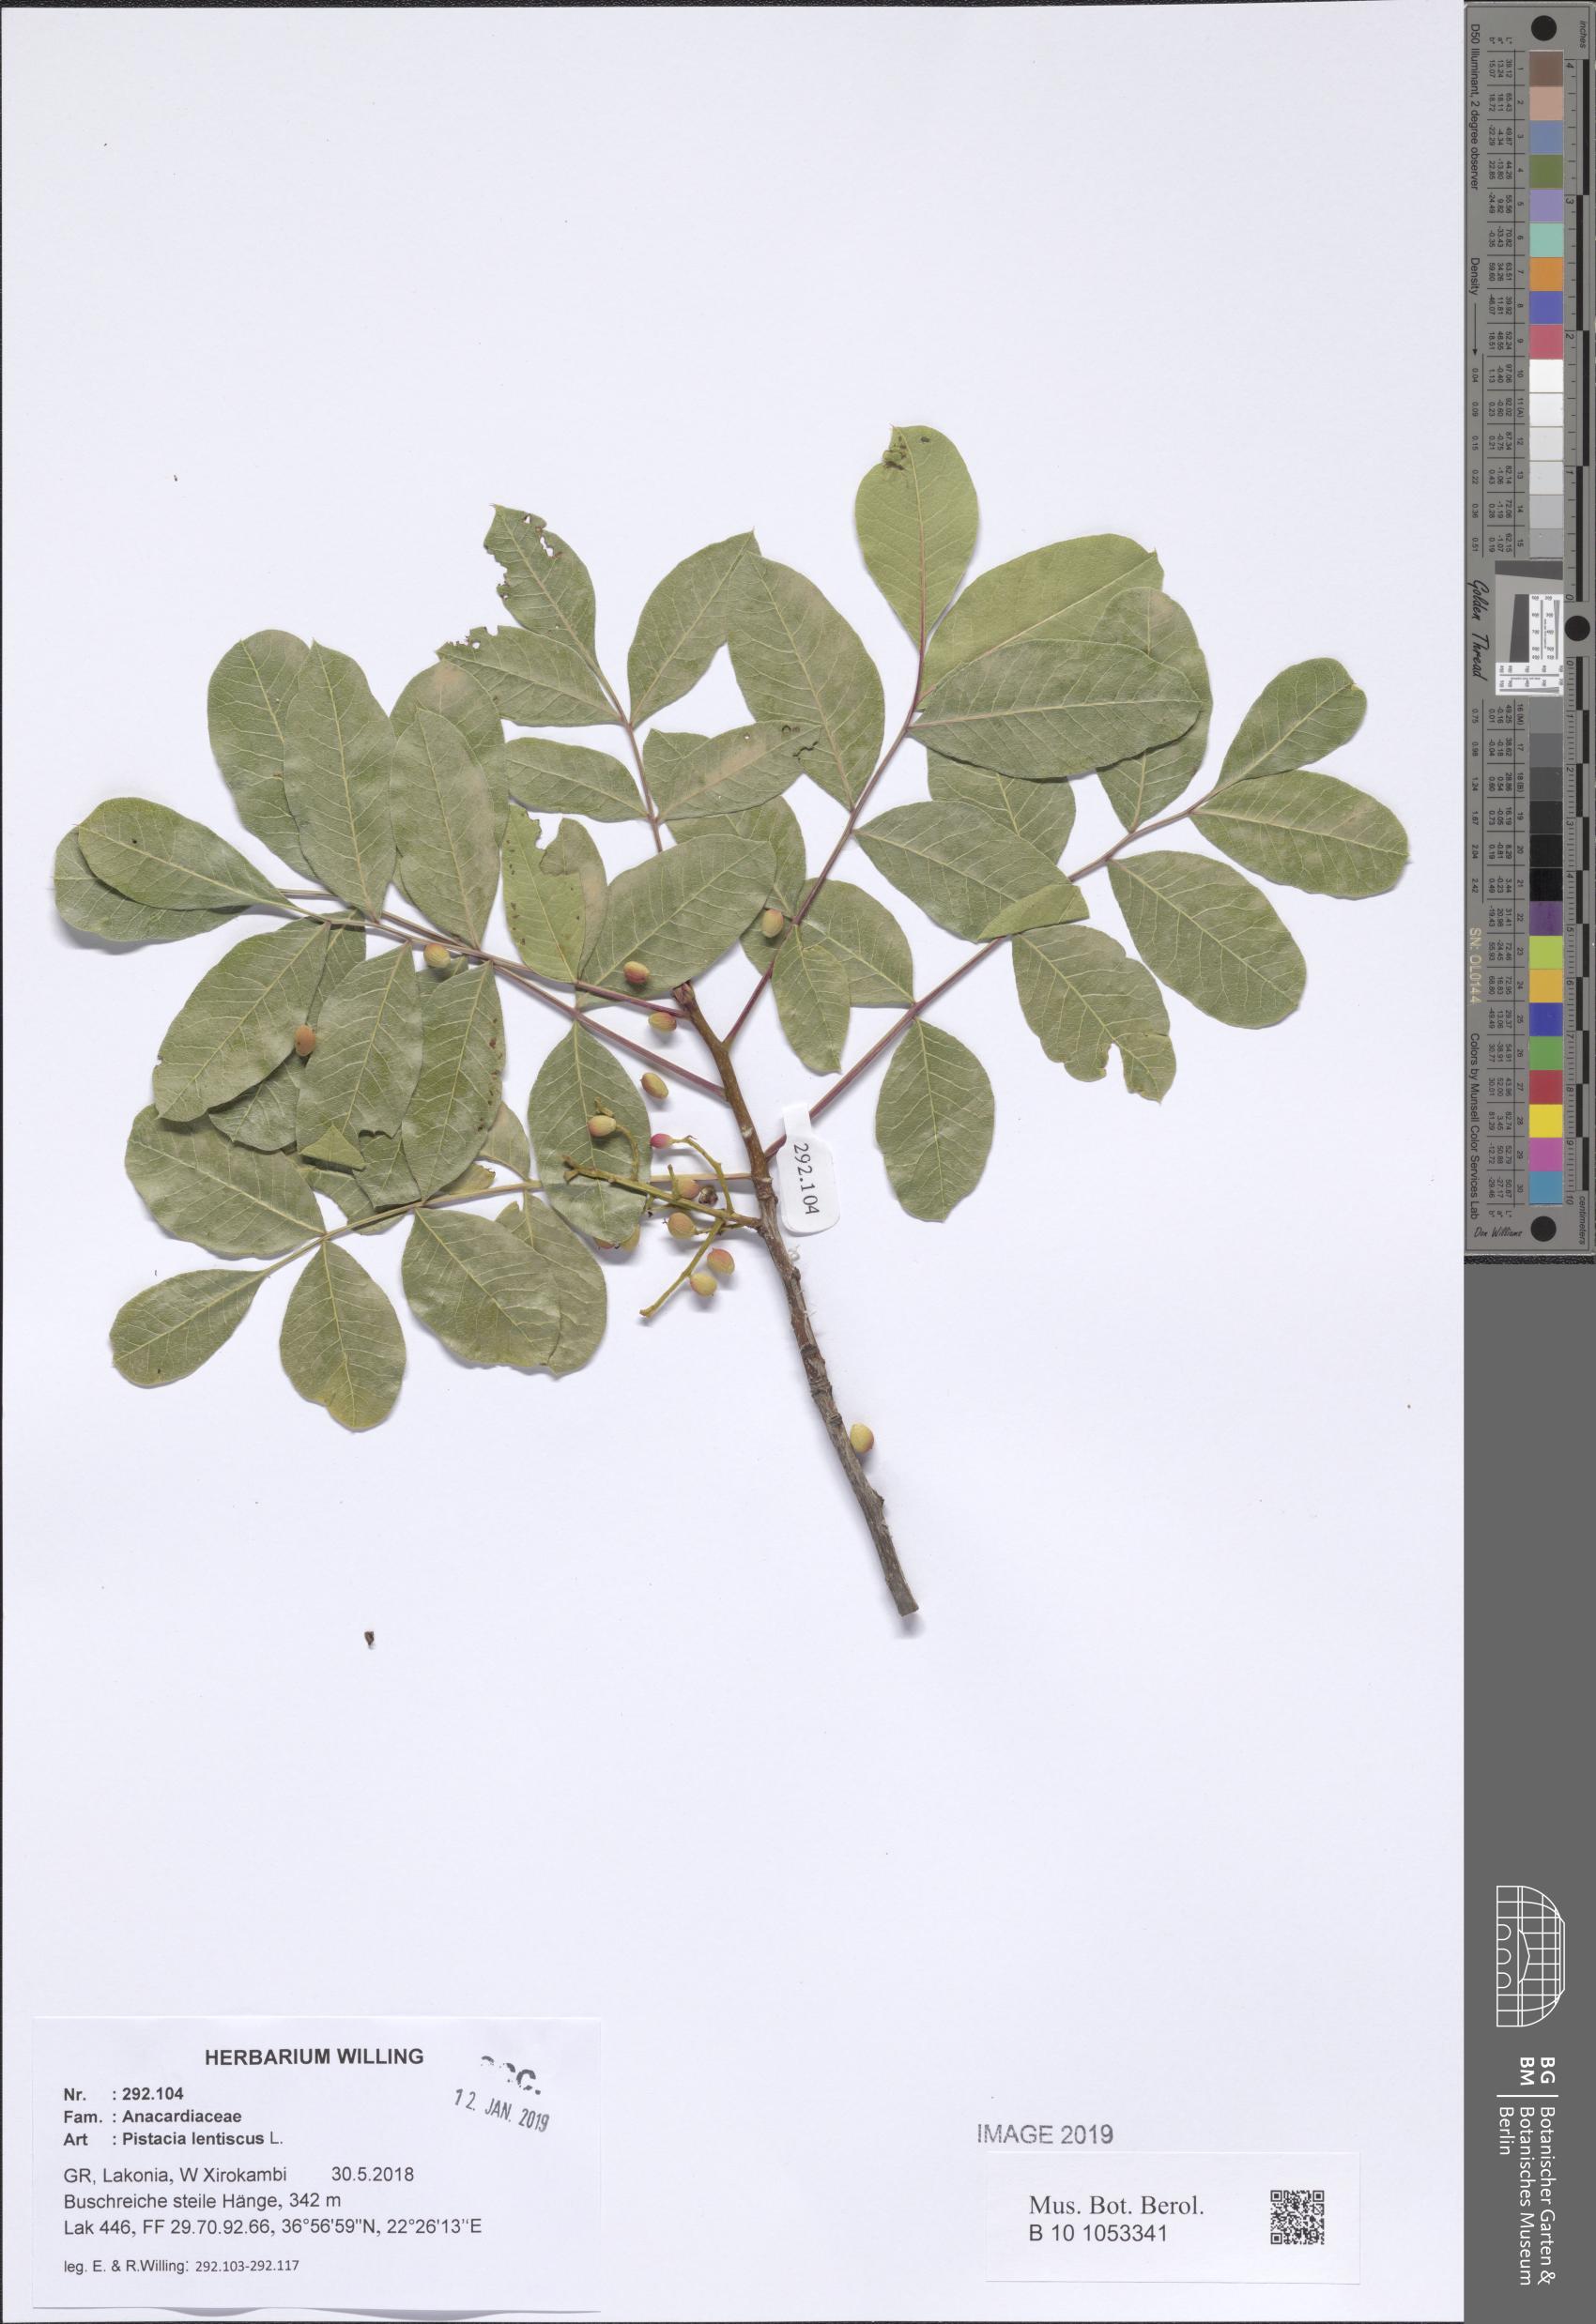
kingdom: Plantae
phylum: Tracheophyta
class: Magnoliopsida
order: Sapindales
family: Anacardiaceae
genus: Pistacia
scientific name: Pistacia lentiscus
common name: Lentisk
